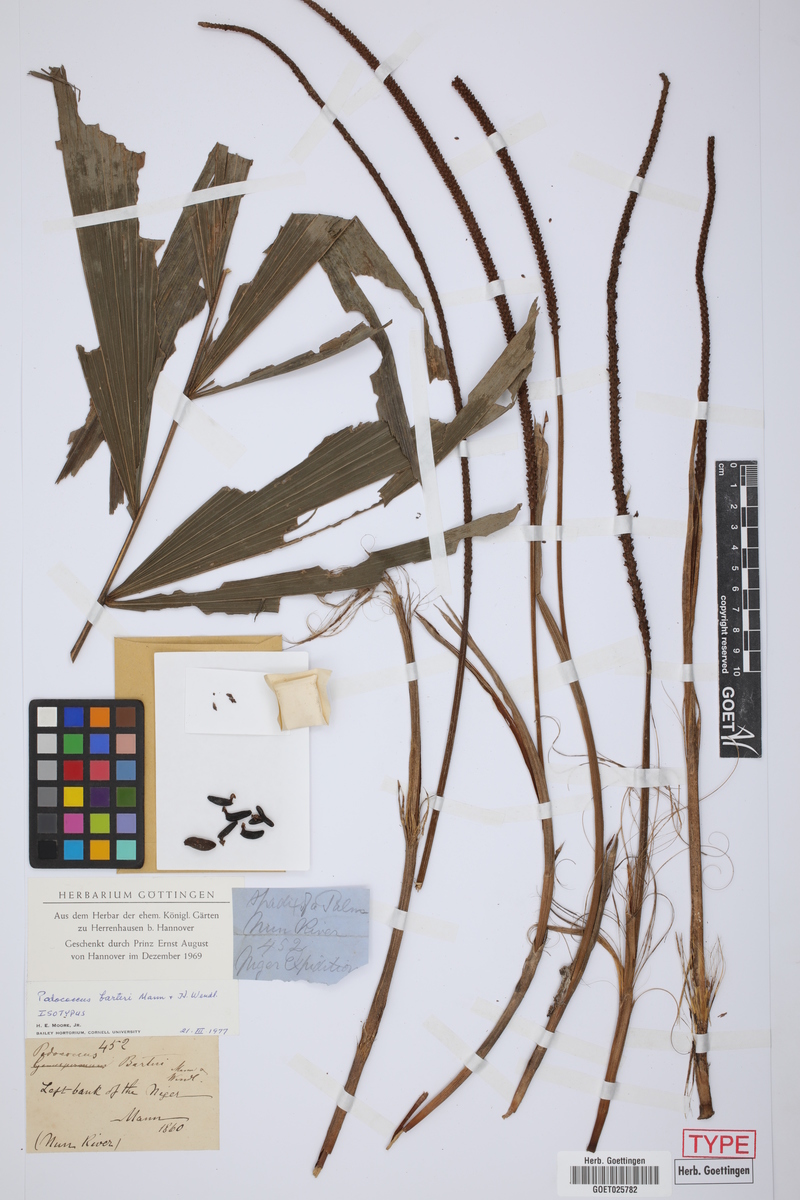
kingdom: Plantae
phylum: Tracheophyta
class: Liliopsida
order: Arecales
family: Arecaceae
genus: Podococcus
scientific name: Podococcus barteri
